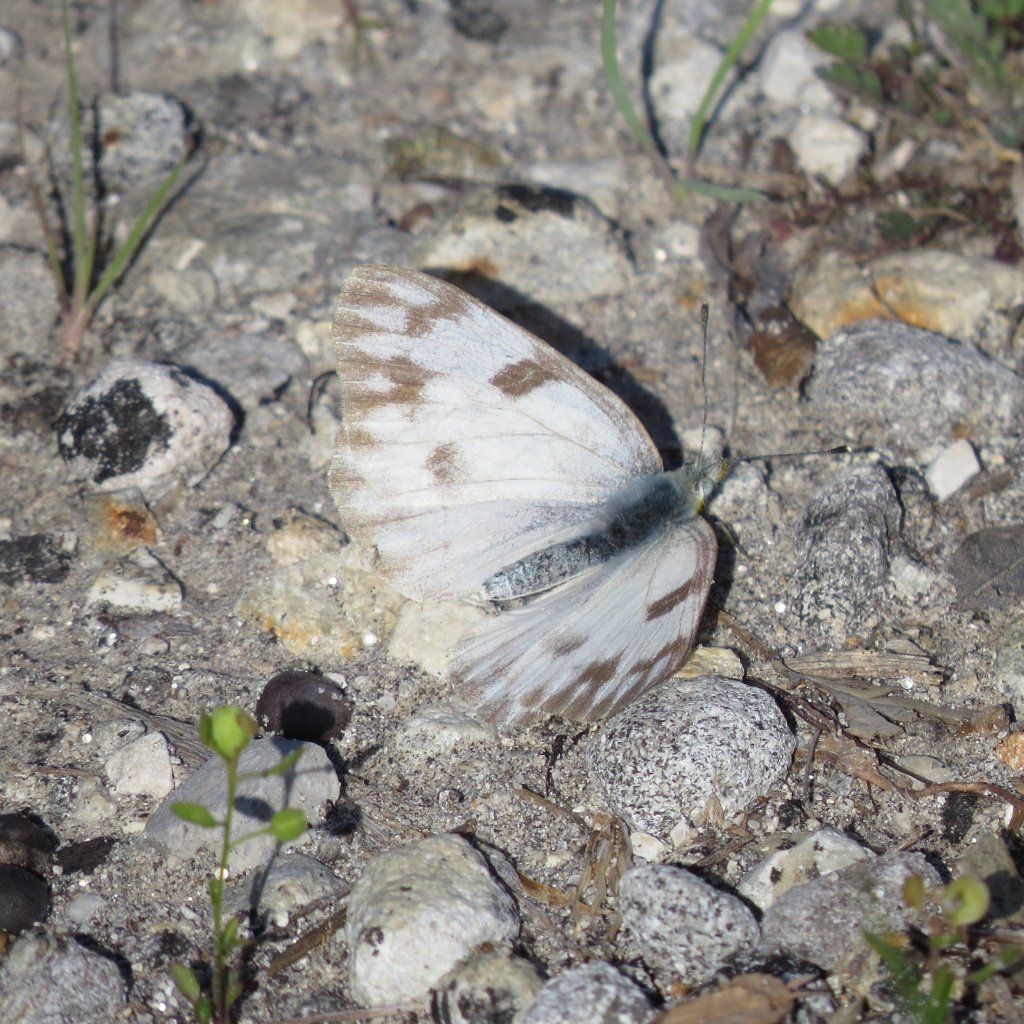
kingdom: Animalia
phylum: Arthropoda
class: Insecta
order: Lepidoptera
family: Pieridae
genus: Pontia
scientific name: Pontia protodice
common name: Checkered White
